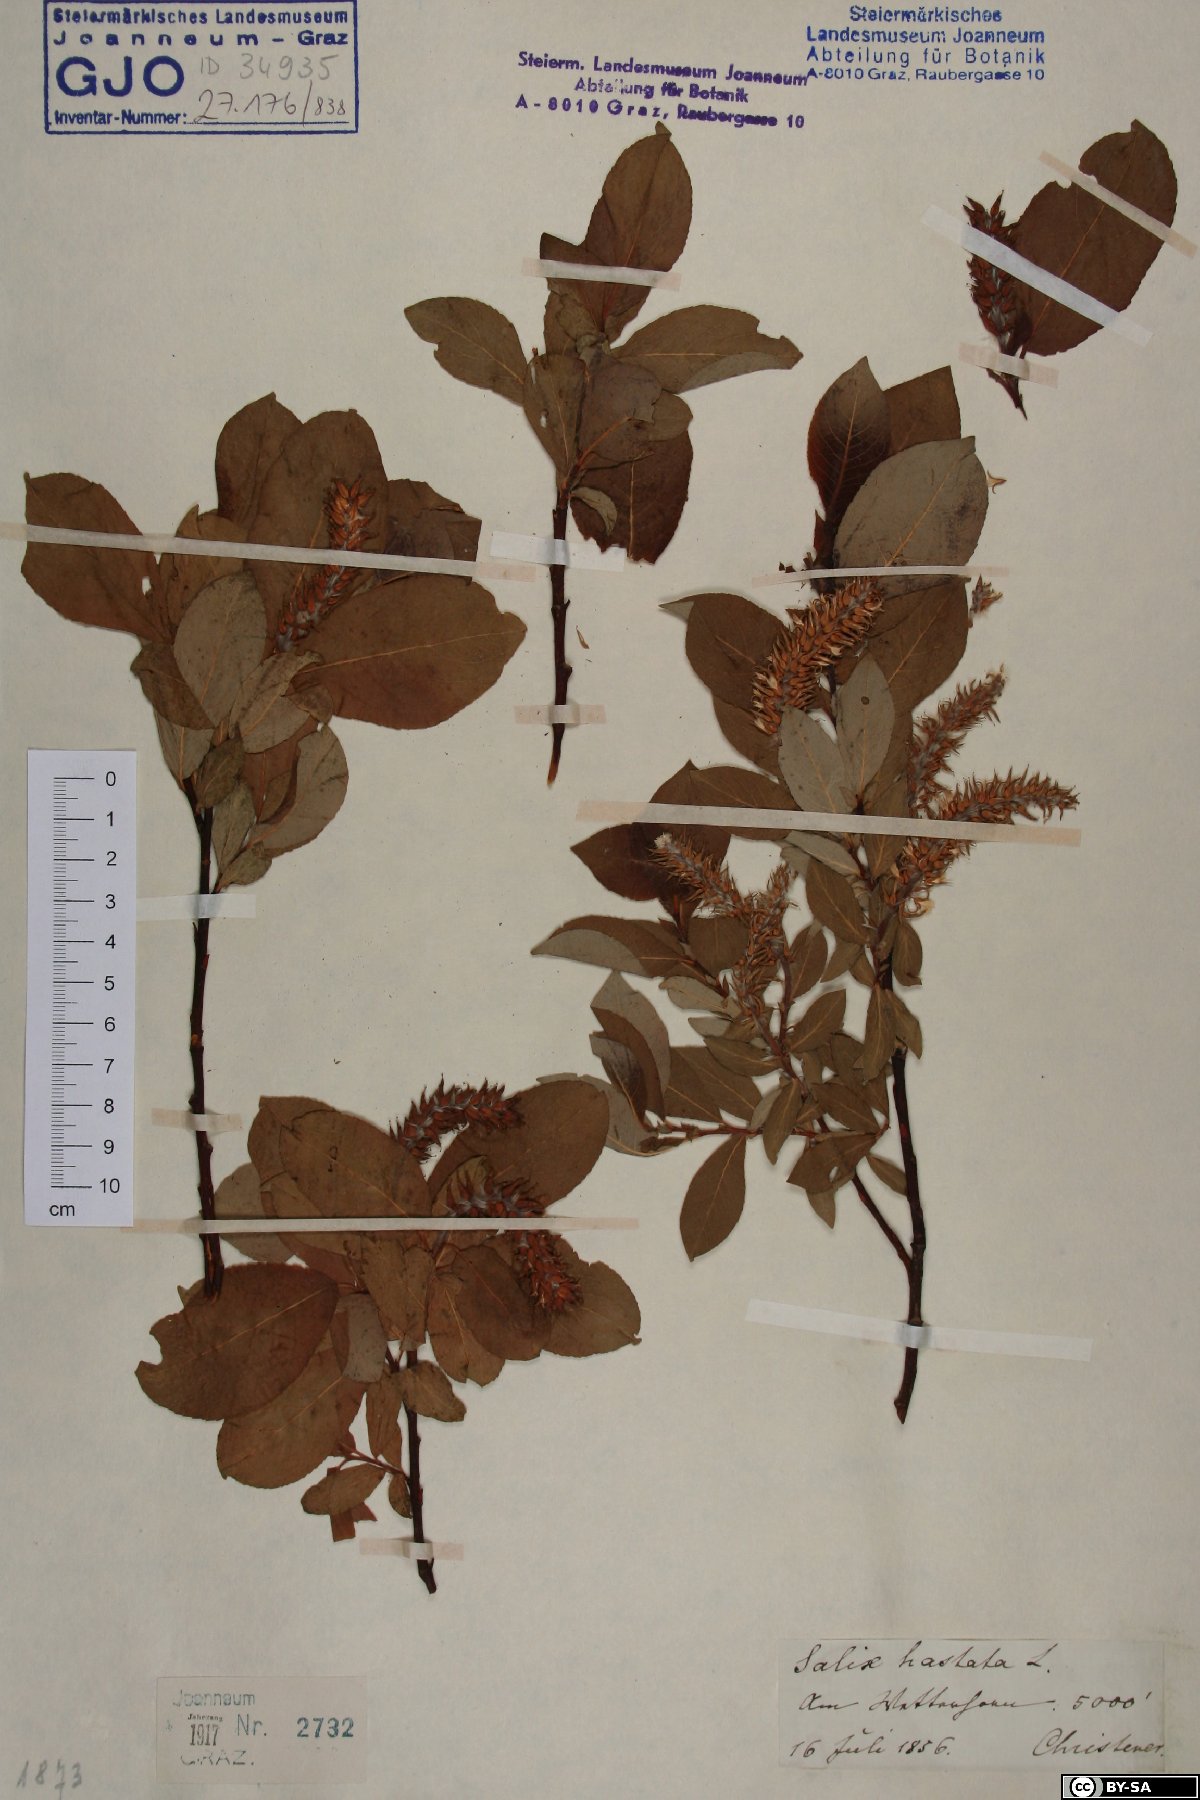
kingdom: Plantae
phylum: Tracheophyta
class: Magnoliopsida
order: Malpighiales
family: Salicaceae
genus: Salix
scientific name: Salix hastata
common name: Halberd willow
